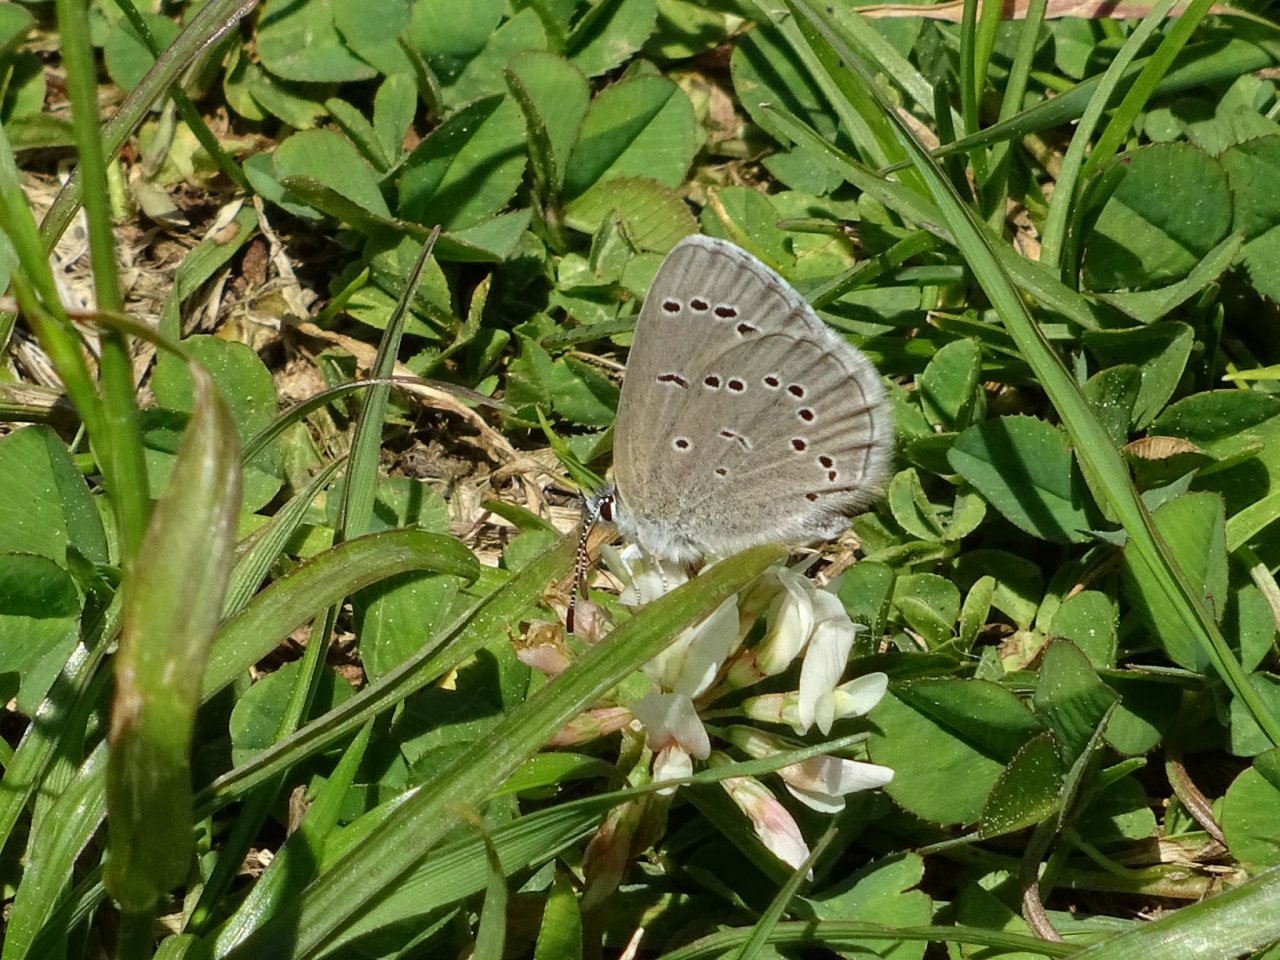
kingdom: Animalia
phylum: Arthropoda
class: Insecta
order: Lepidoptera
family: Lycaenidae
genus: Glaucopsyche
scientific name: Glaucopsyche lygdamus
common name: Silvery Blue
